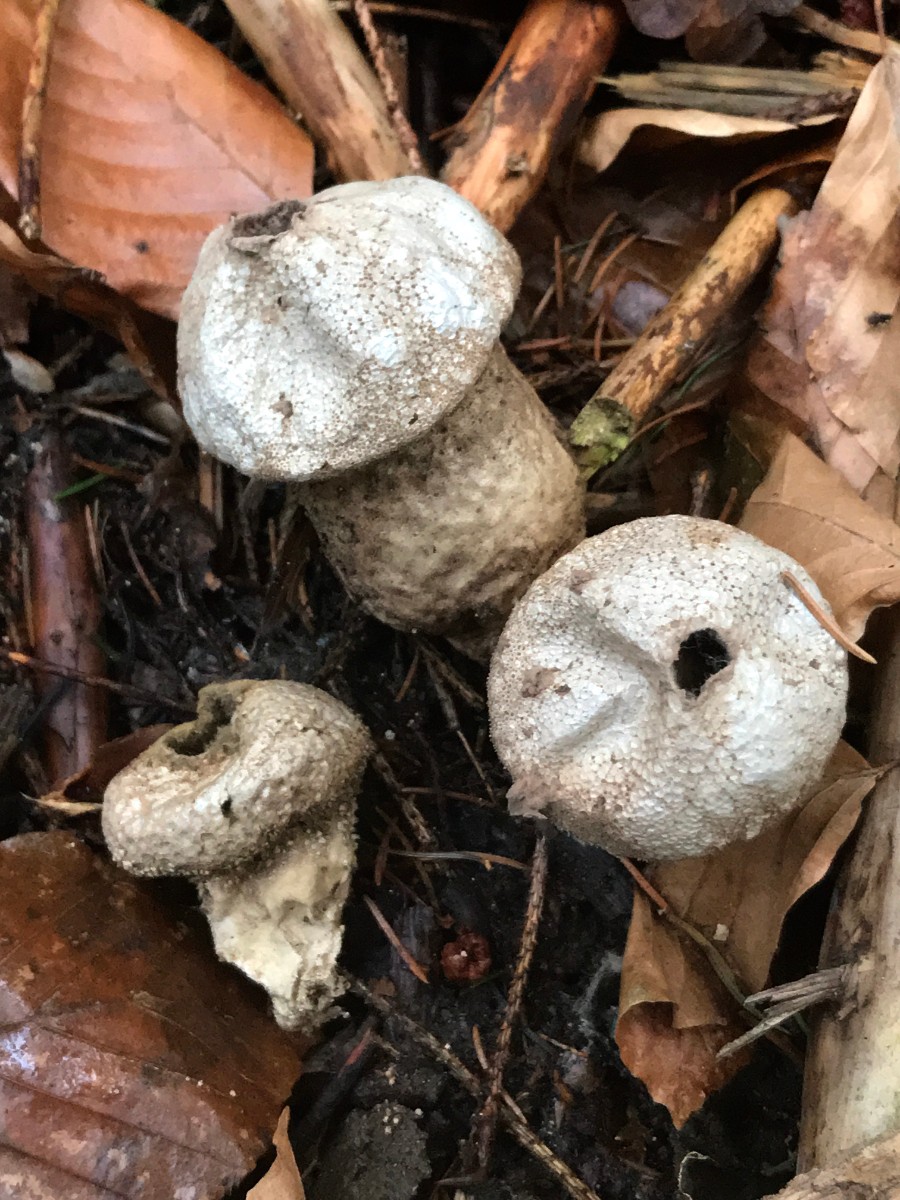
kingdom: Fungi
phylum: Basidiomycota
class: Agaricomycetes
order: Agaricales
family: Lycoperdaceae
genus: Lycoperdon
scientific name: Lycoperdon perlatum
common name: krystal-støvbold
